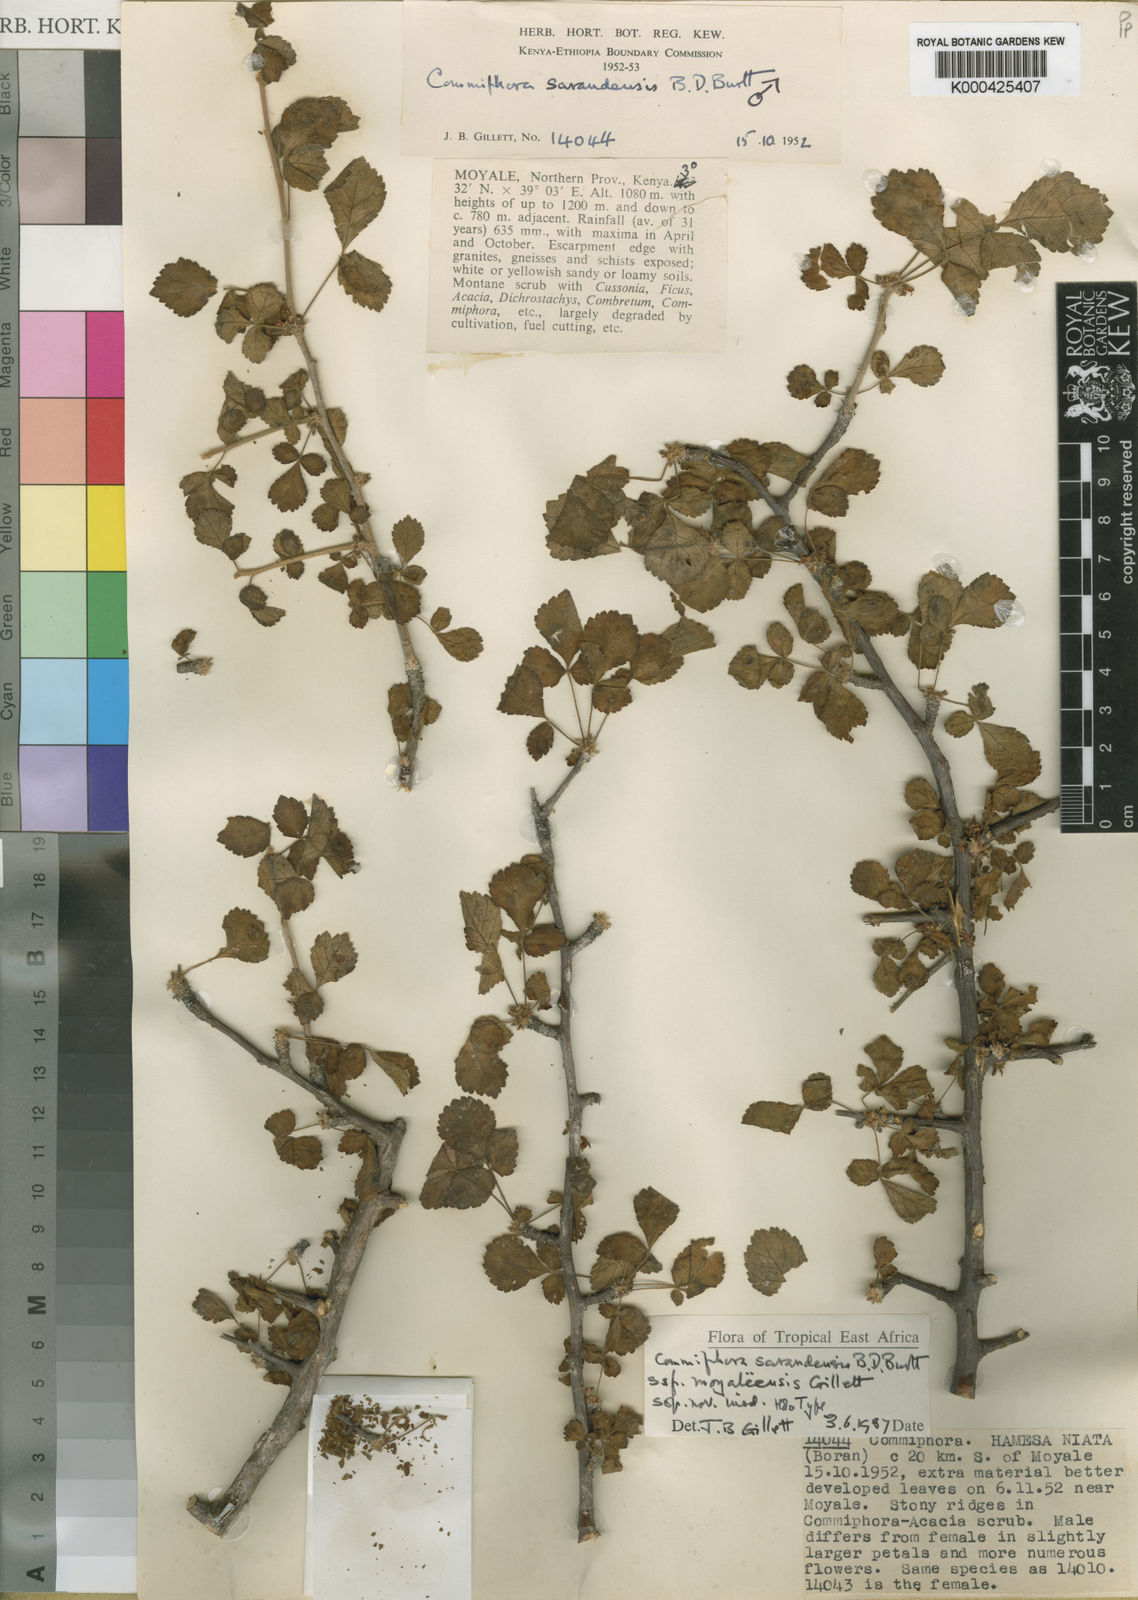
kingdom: Plantae
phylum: Tracheophyta
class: Magnoliopsida
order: Sapindales
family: Burseraceae
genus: Commiphora
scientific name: Commiphora sarandensis
